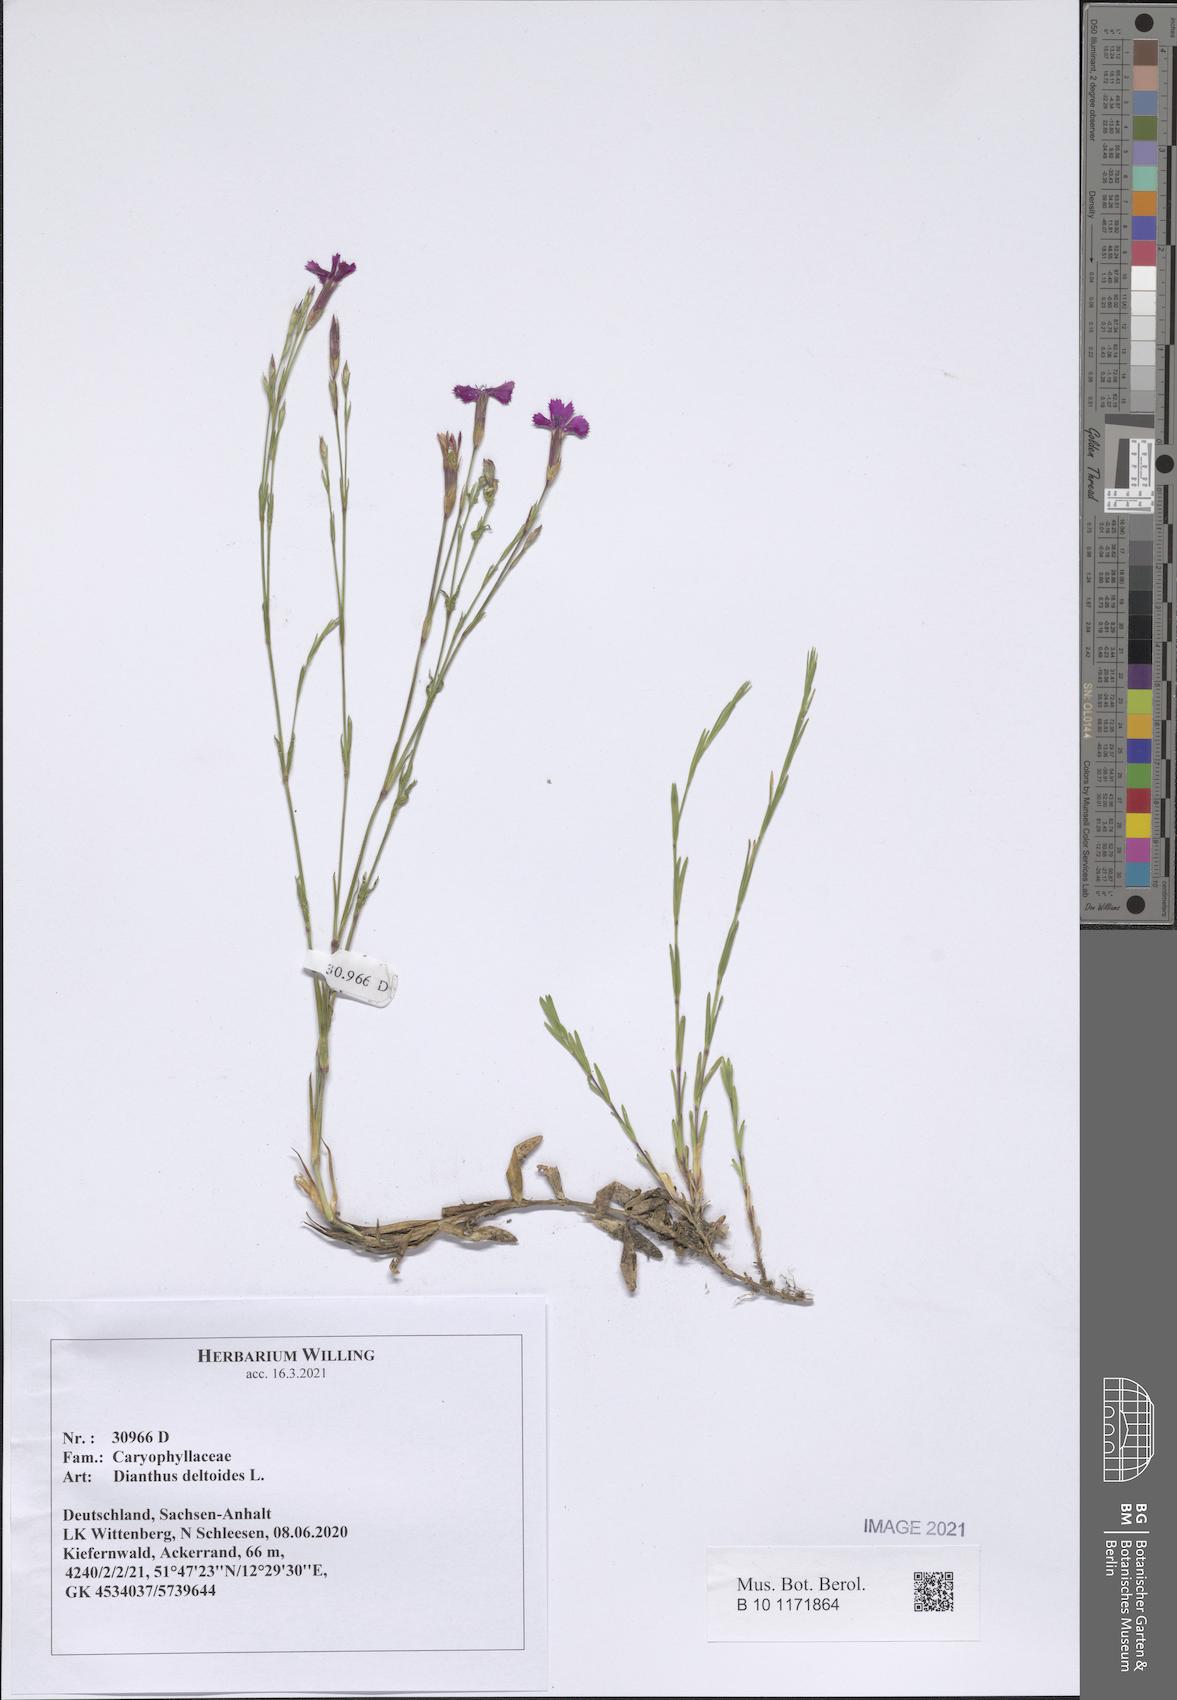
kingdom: Plantae
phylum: Tracheophyta
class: Magnoliopsida
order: Caryophyllales
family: Caryophyllaceae
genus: Dianthus
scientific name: Dianthus deltoides
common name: Maiden pink
